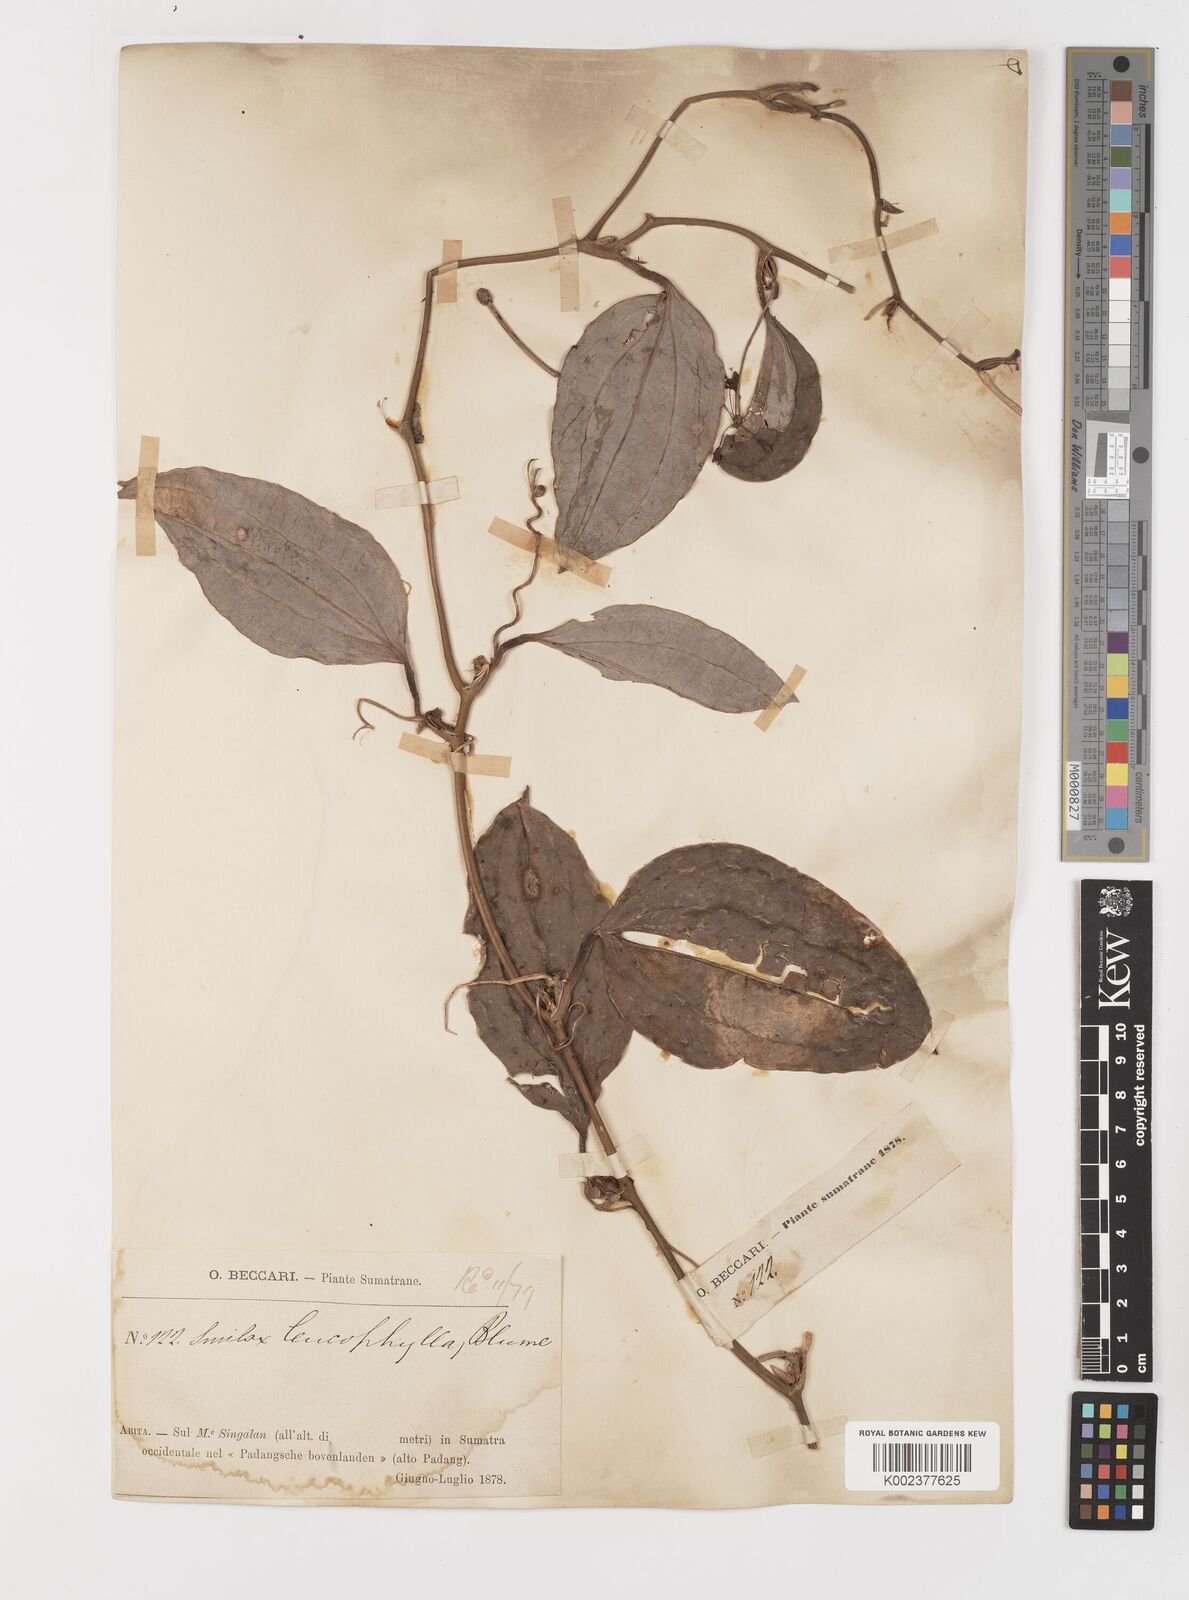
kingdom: Plantae
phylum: Tracheophyta
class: Liliopsida
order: Liliales
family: Smilacaceae
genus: Smilax
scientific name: Smilax leucophylla
